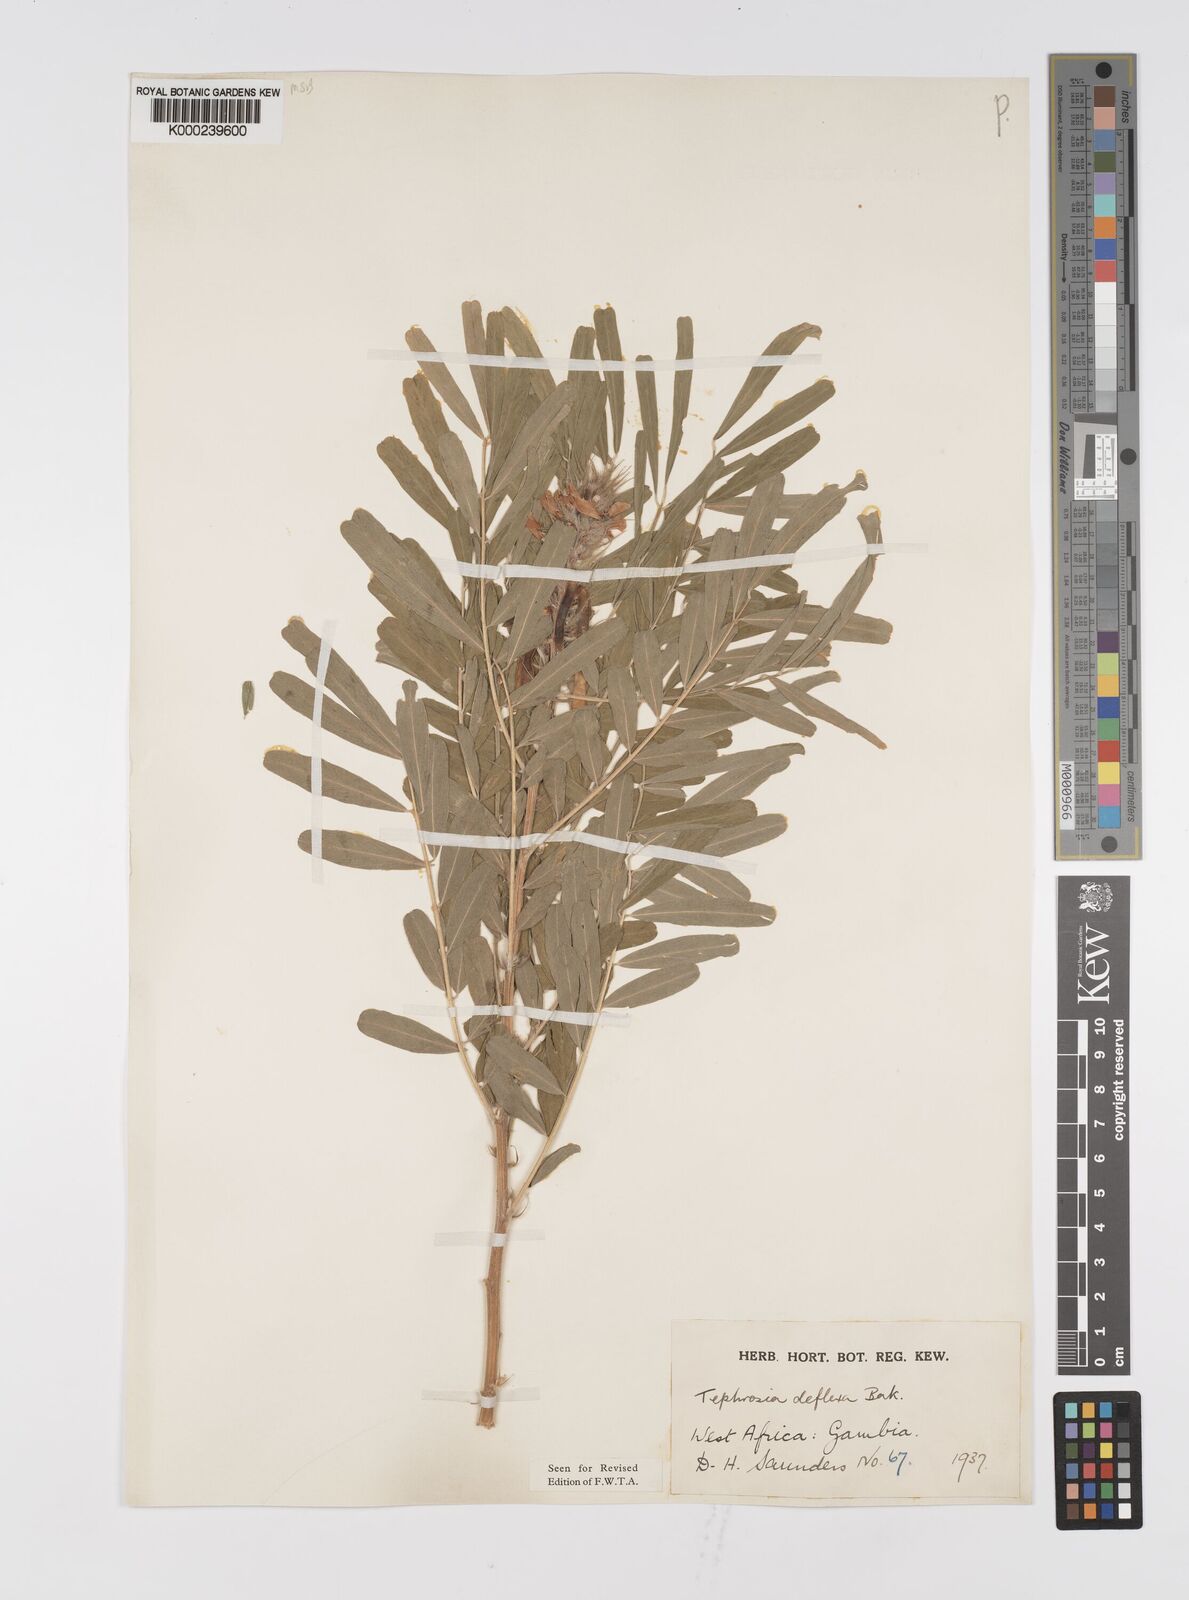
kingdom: Plantae
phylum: Tracheophyta
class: Magnoliopsida
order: Fabales
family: Fabaceae
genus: Tephrosia
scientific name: Tephrosia deflexa
